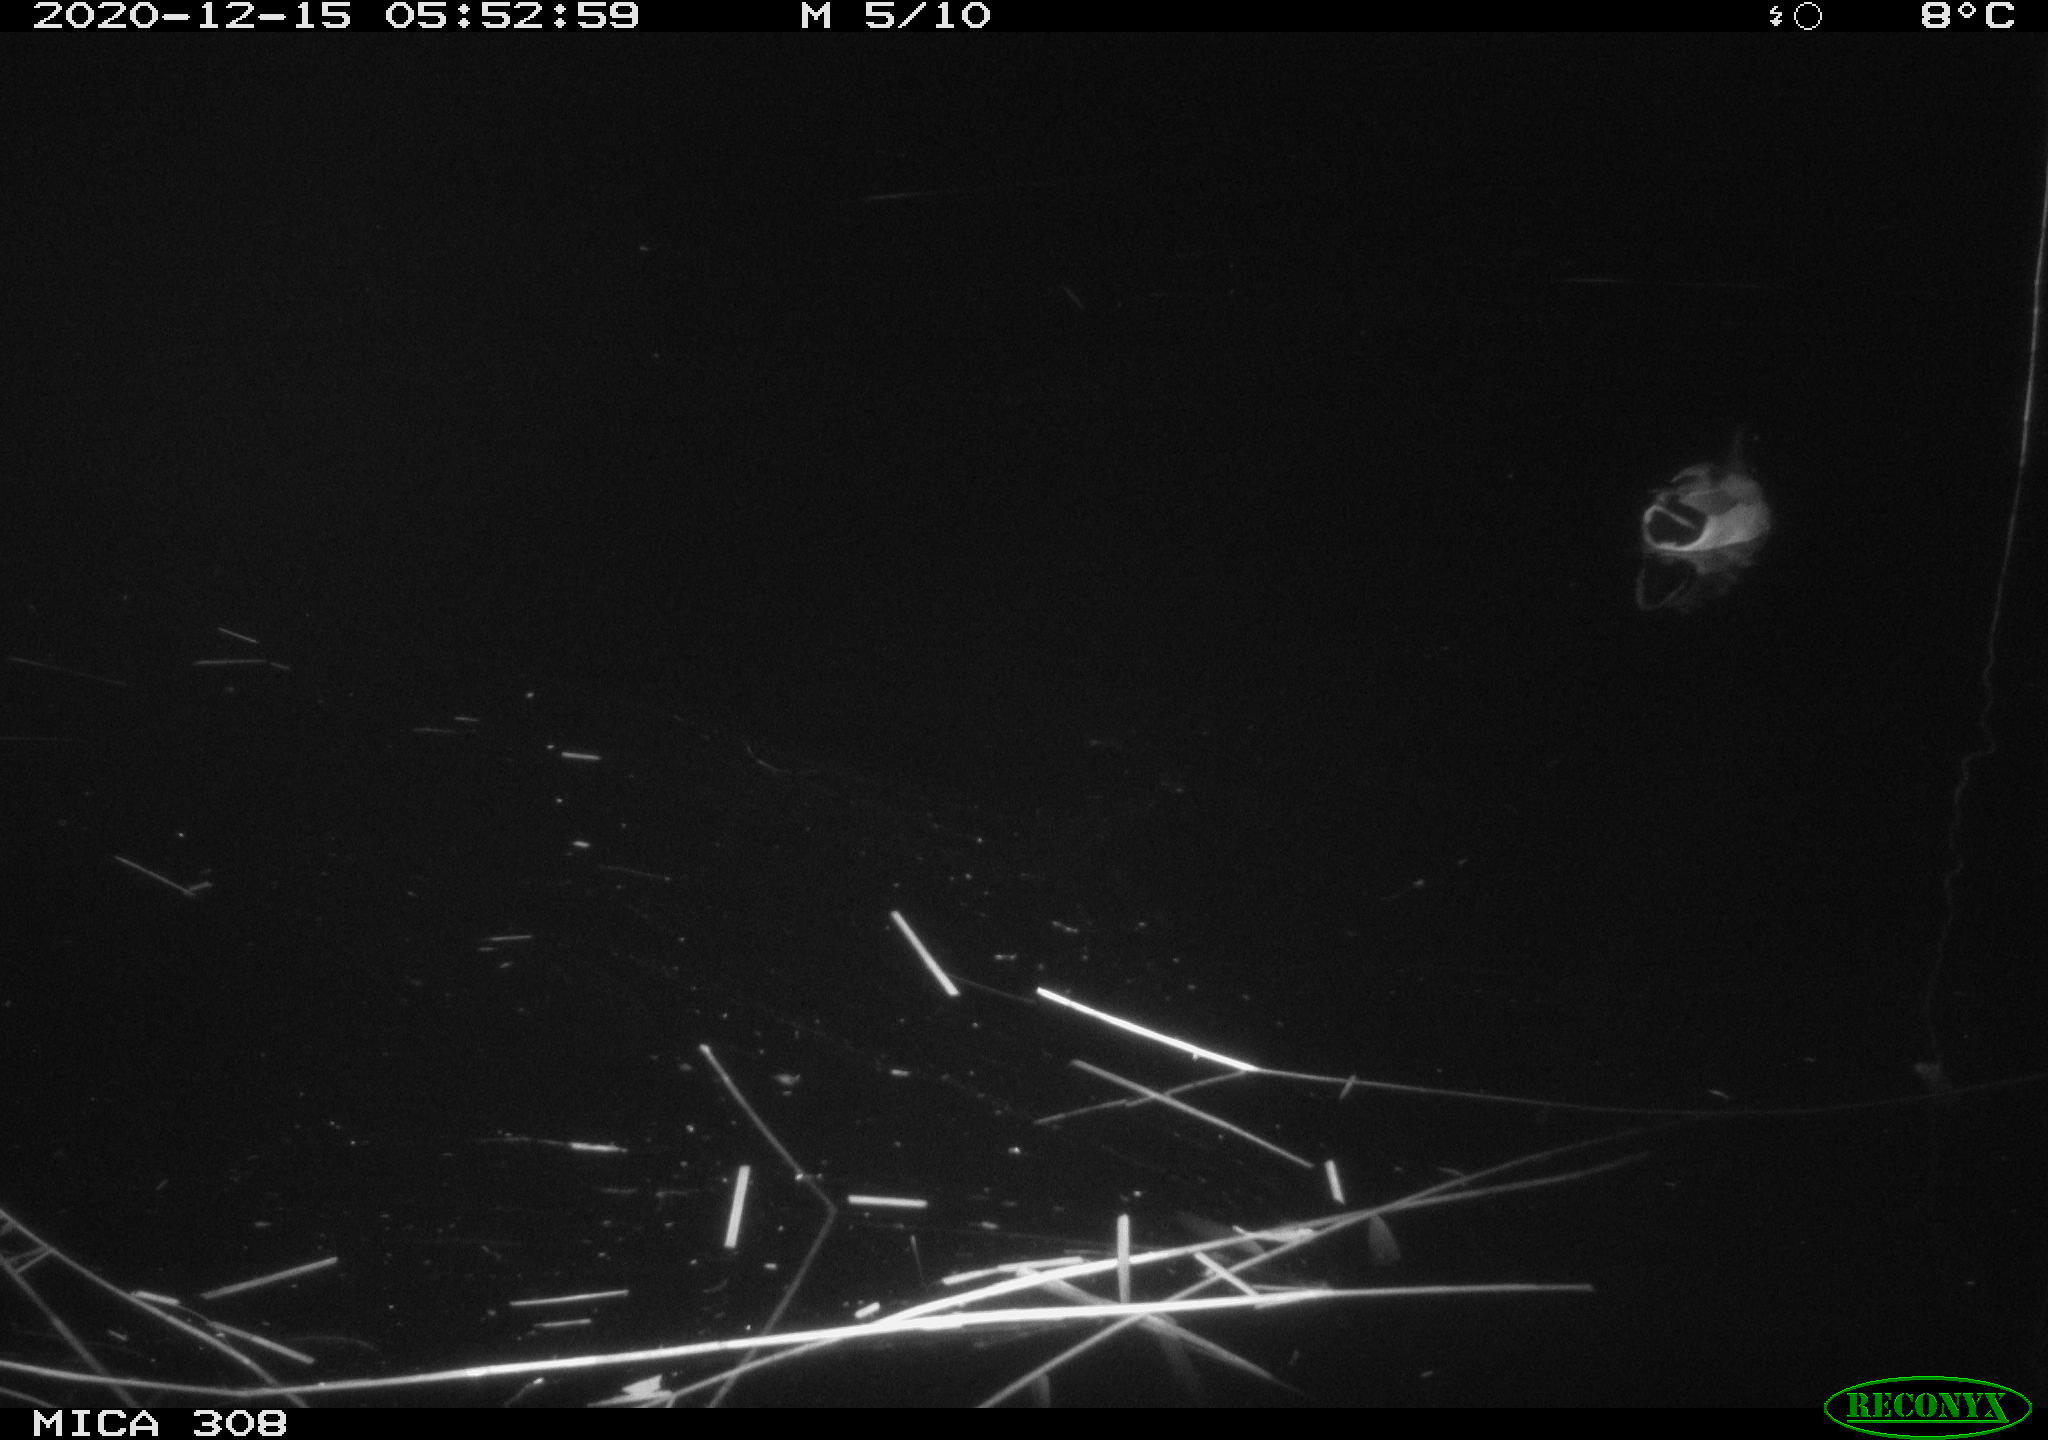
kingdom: Animalia
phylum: Chordata
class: Aves
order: Anseriformes
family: Anatidae
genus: Anas
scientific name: Anas platyrhynchos
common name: Mallard
